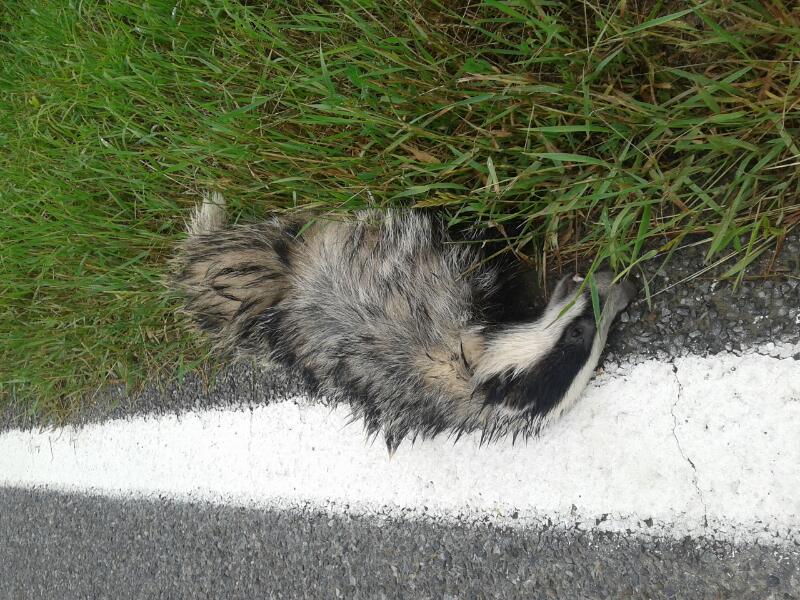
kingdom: Animalia
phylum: Chordata
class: Mammalia
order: Carnivora
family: Mustelidae
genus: Meles
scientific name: Meles meles
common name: Eurasian badger
